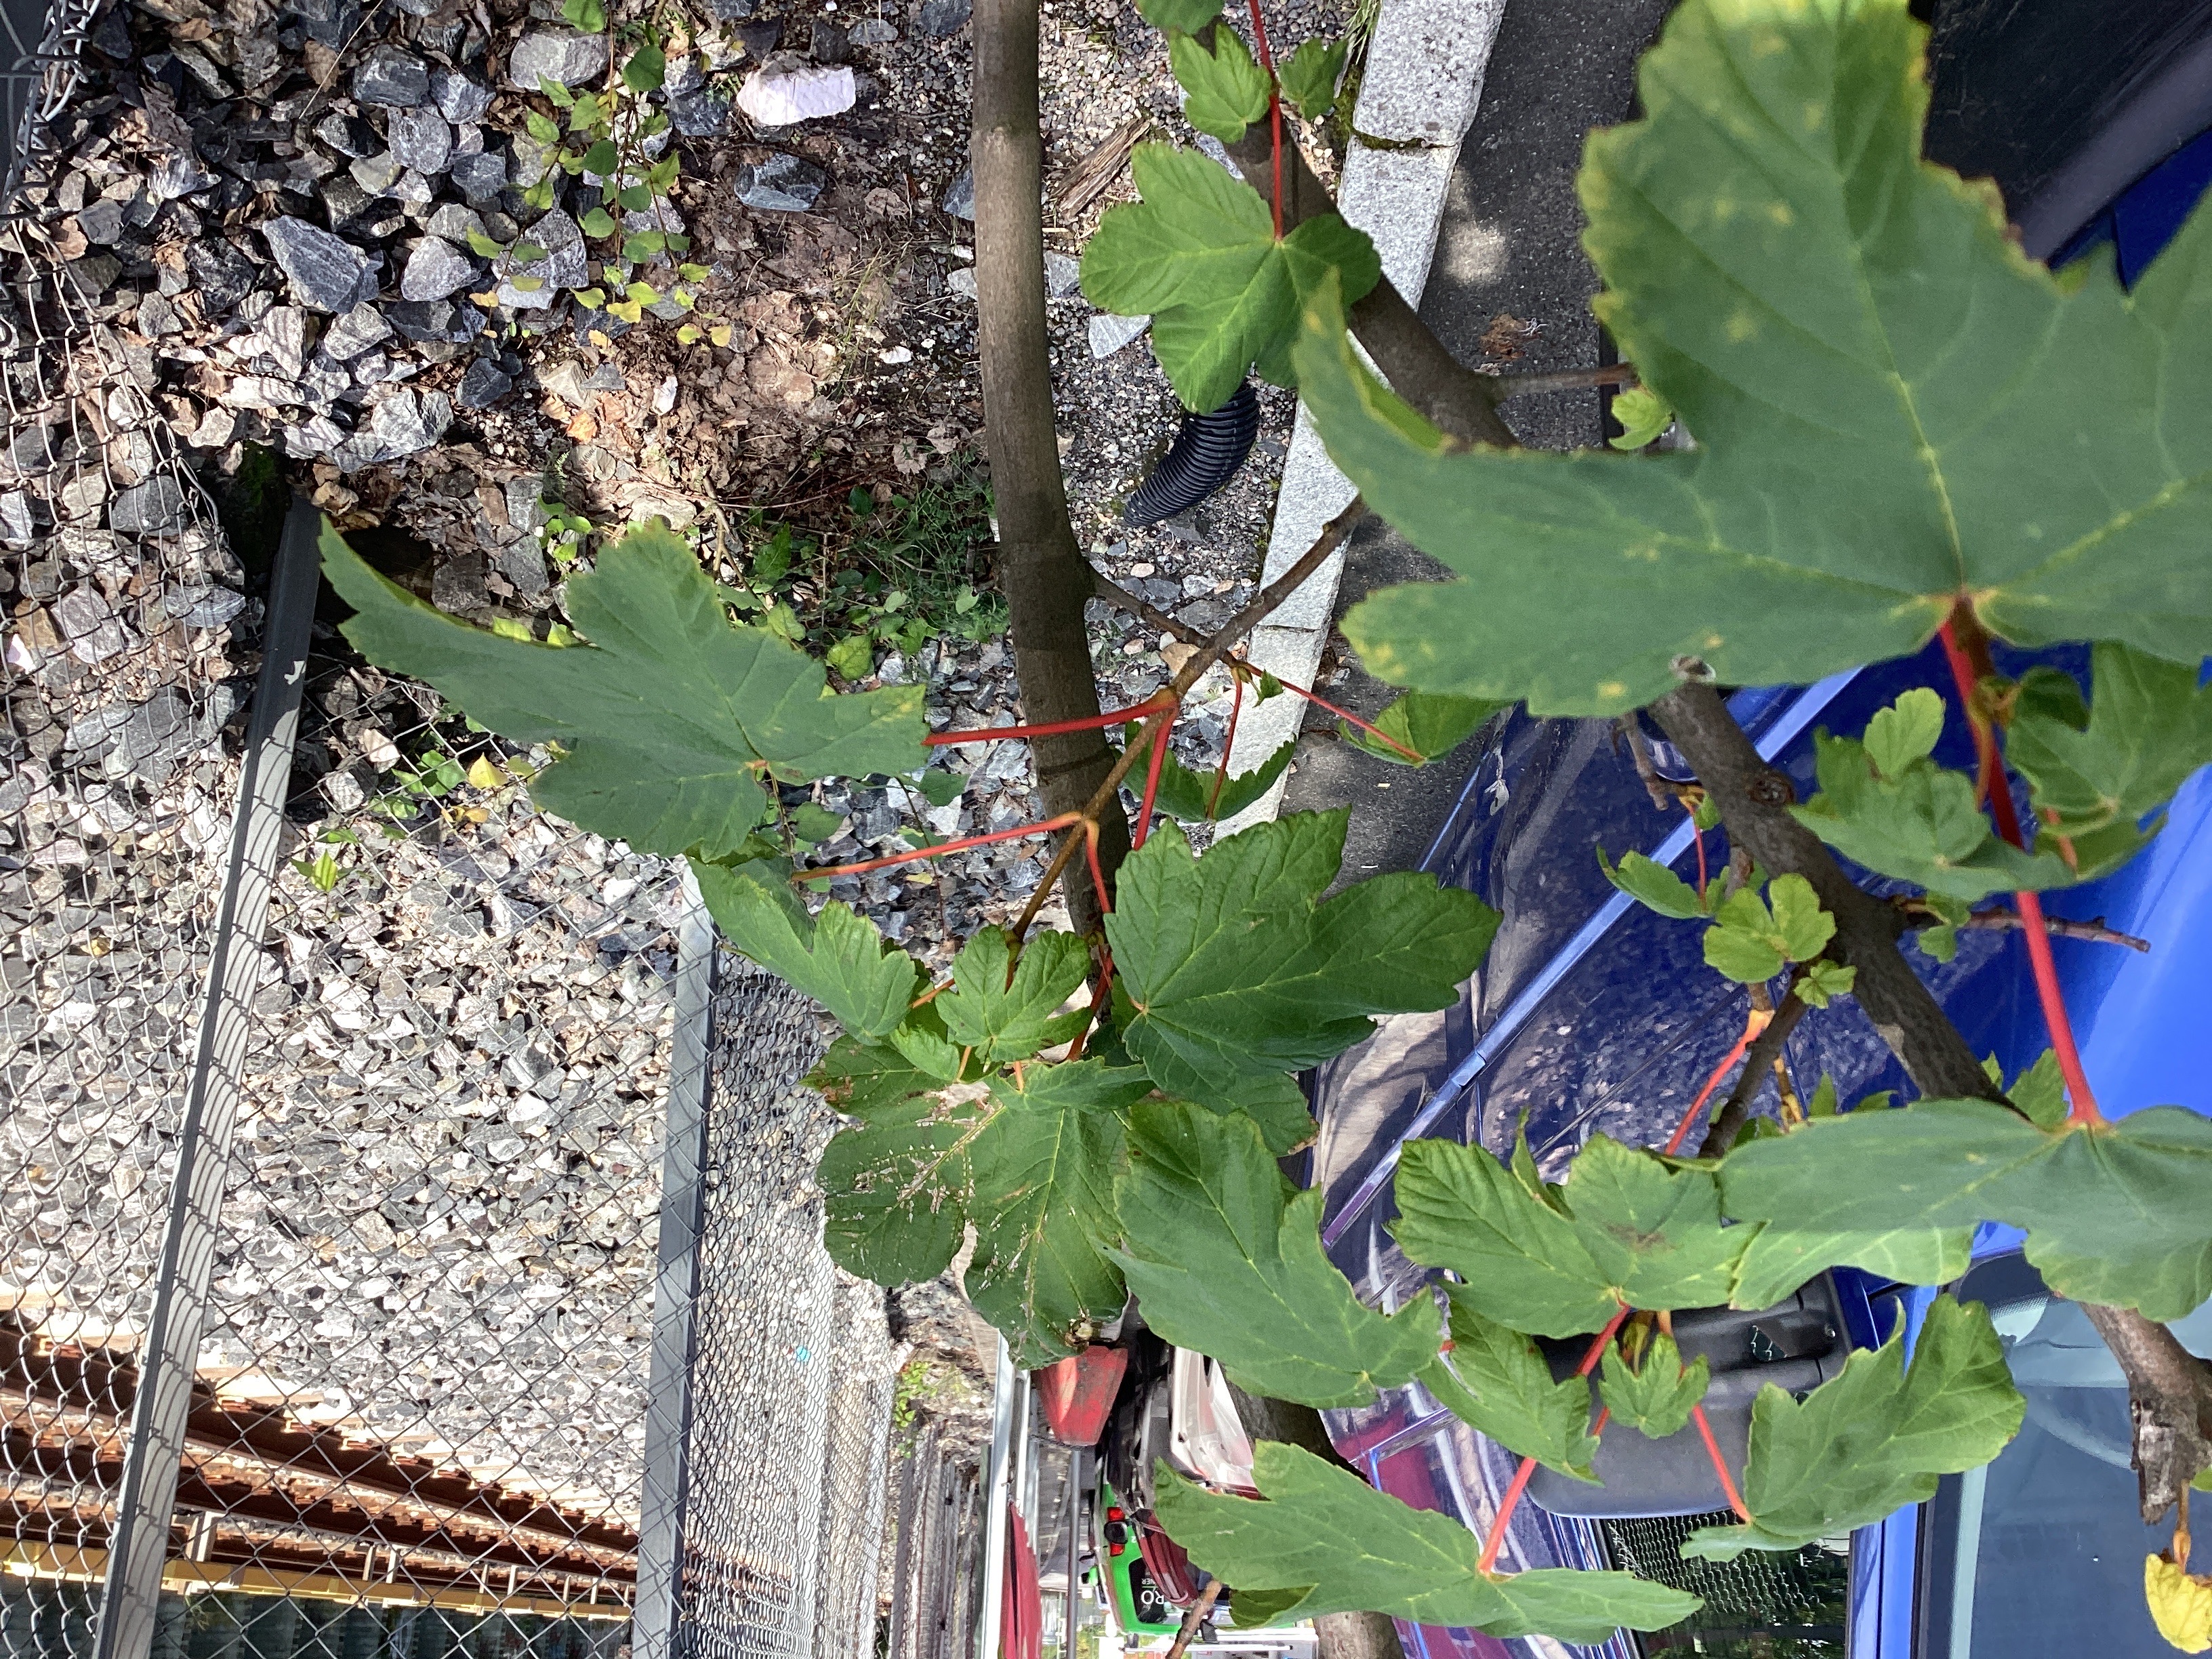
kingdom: Plantae
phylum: Tracheophyta
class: Magnoliopsida
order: Sapindales
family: Sapindaceae
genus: Acer
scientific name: Acer pseudoplatanus
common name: platanlønn
